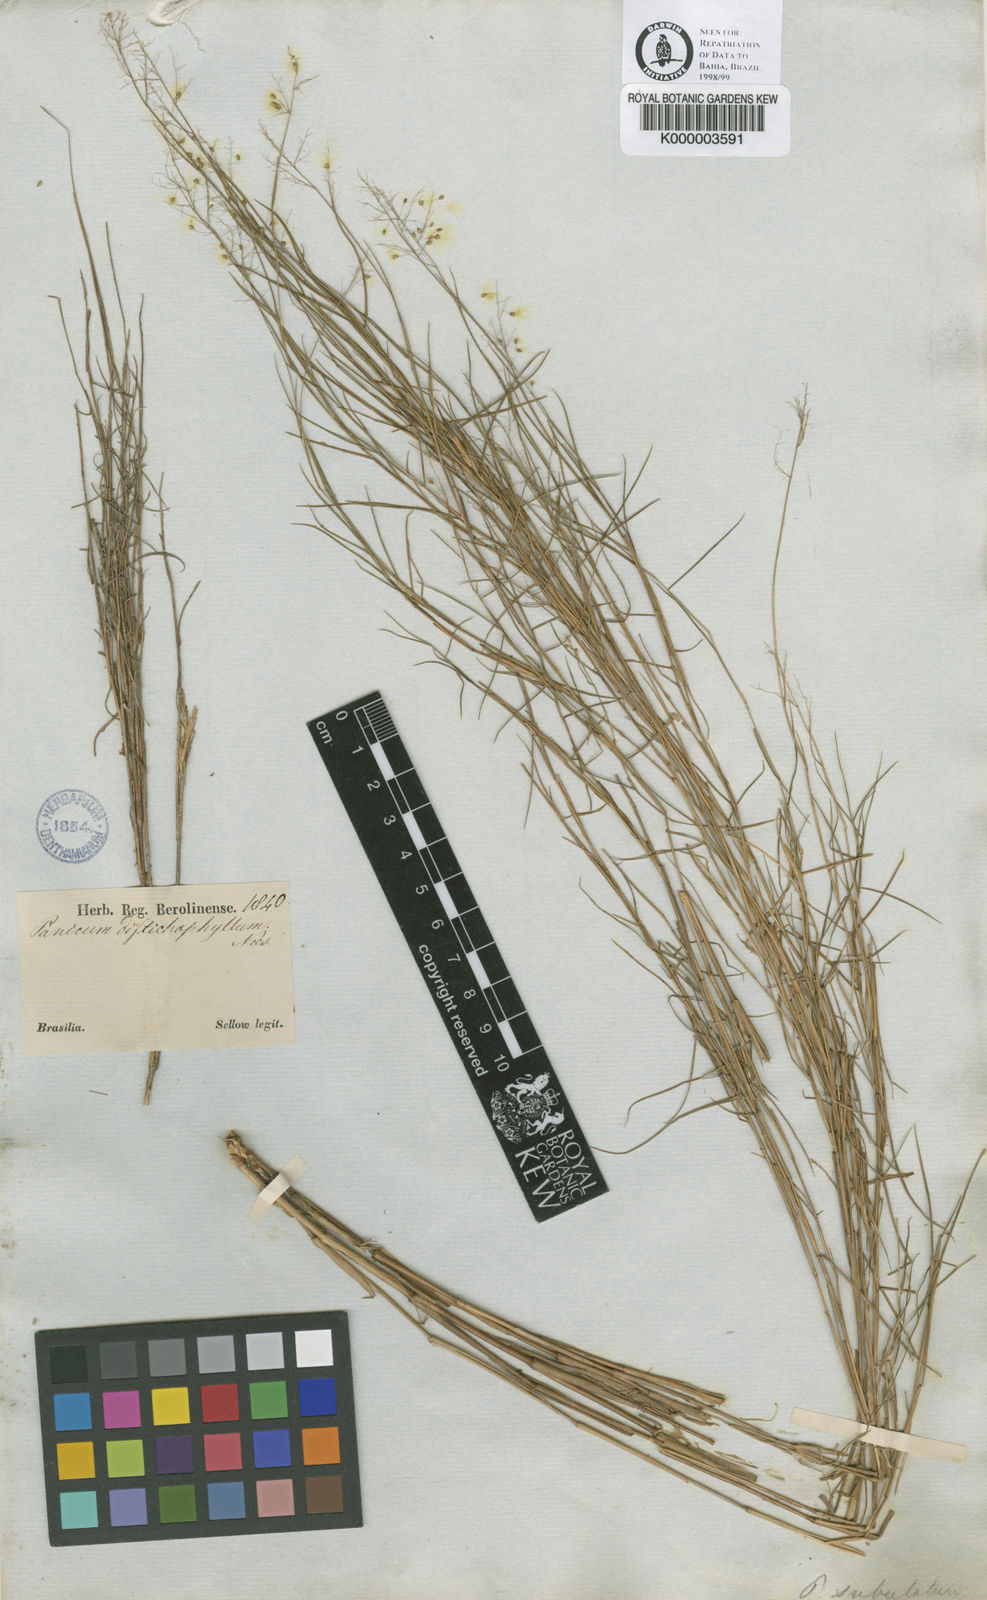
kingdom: Plantae
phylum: Tracheophyta
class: Liliopsida
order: Poales
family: Poaceae
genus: Trichanthecium
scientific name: Trichanthecium distichophyllum
